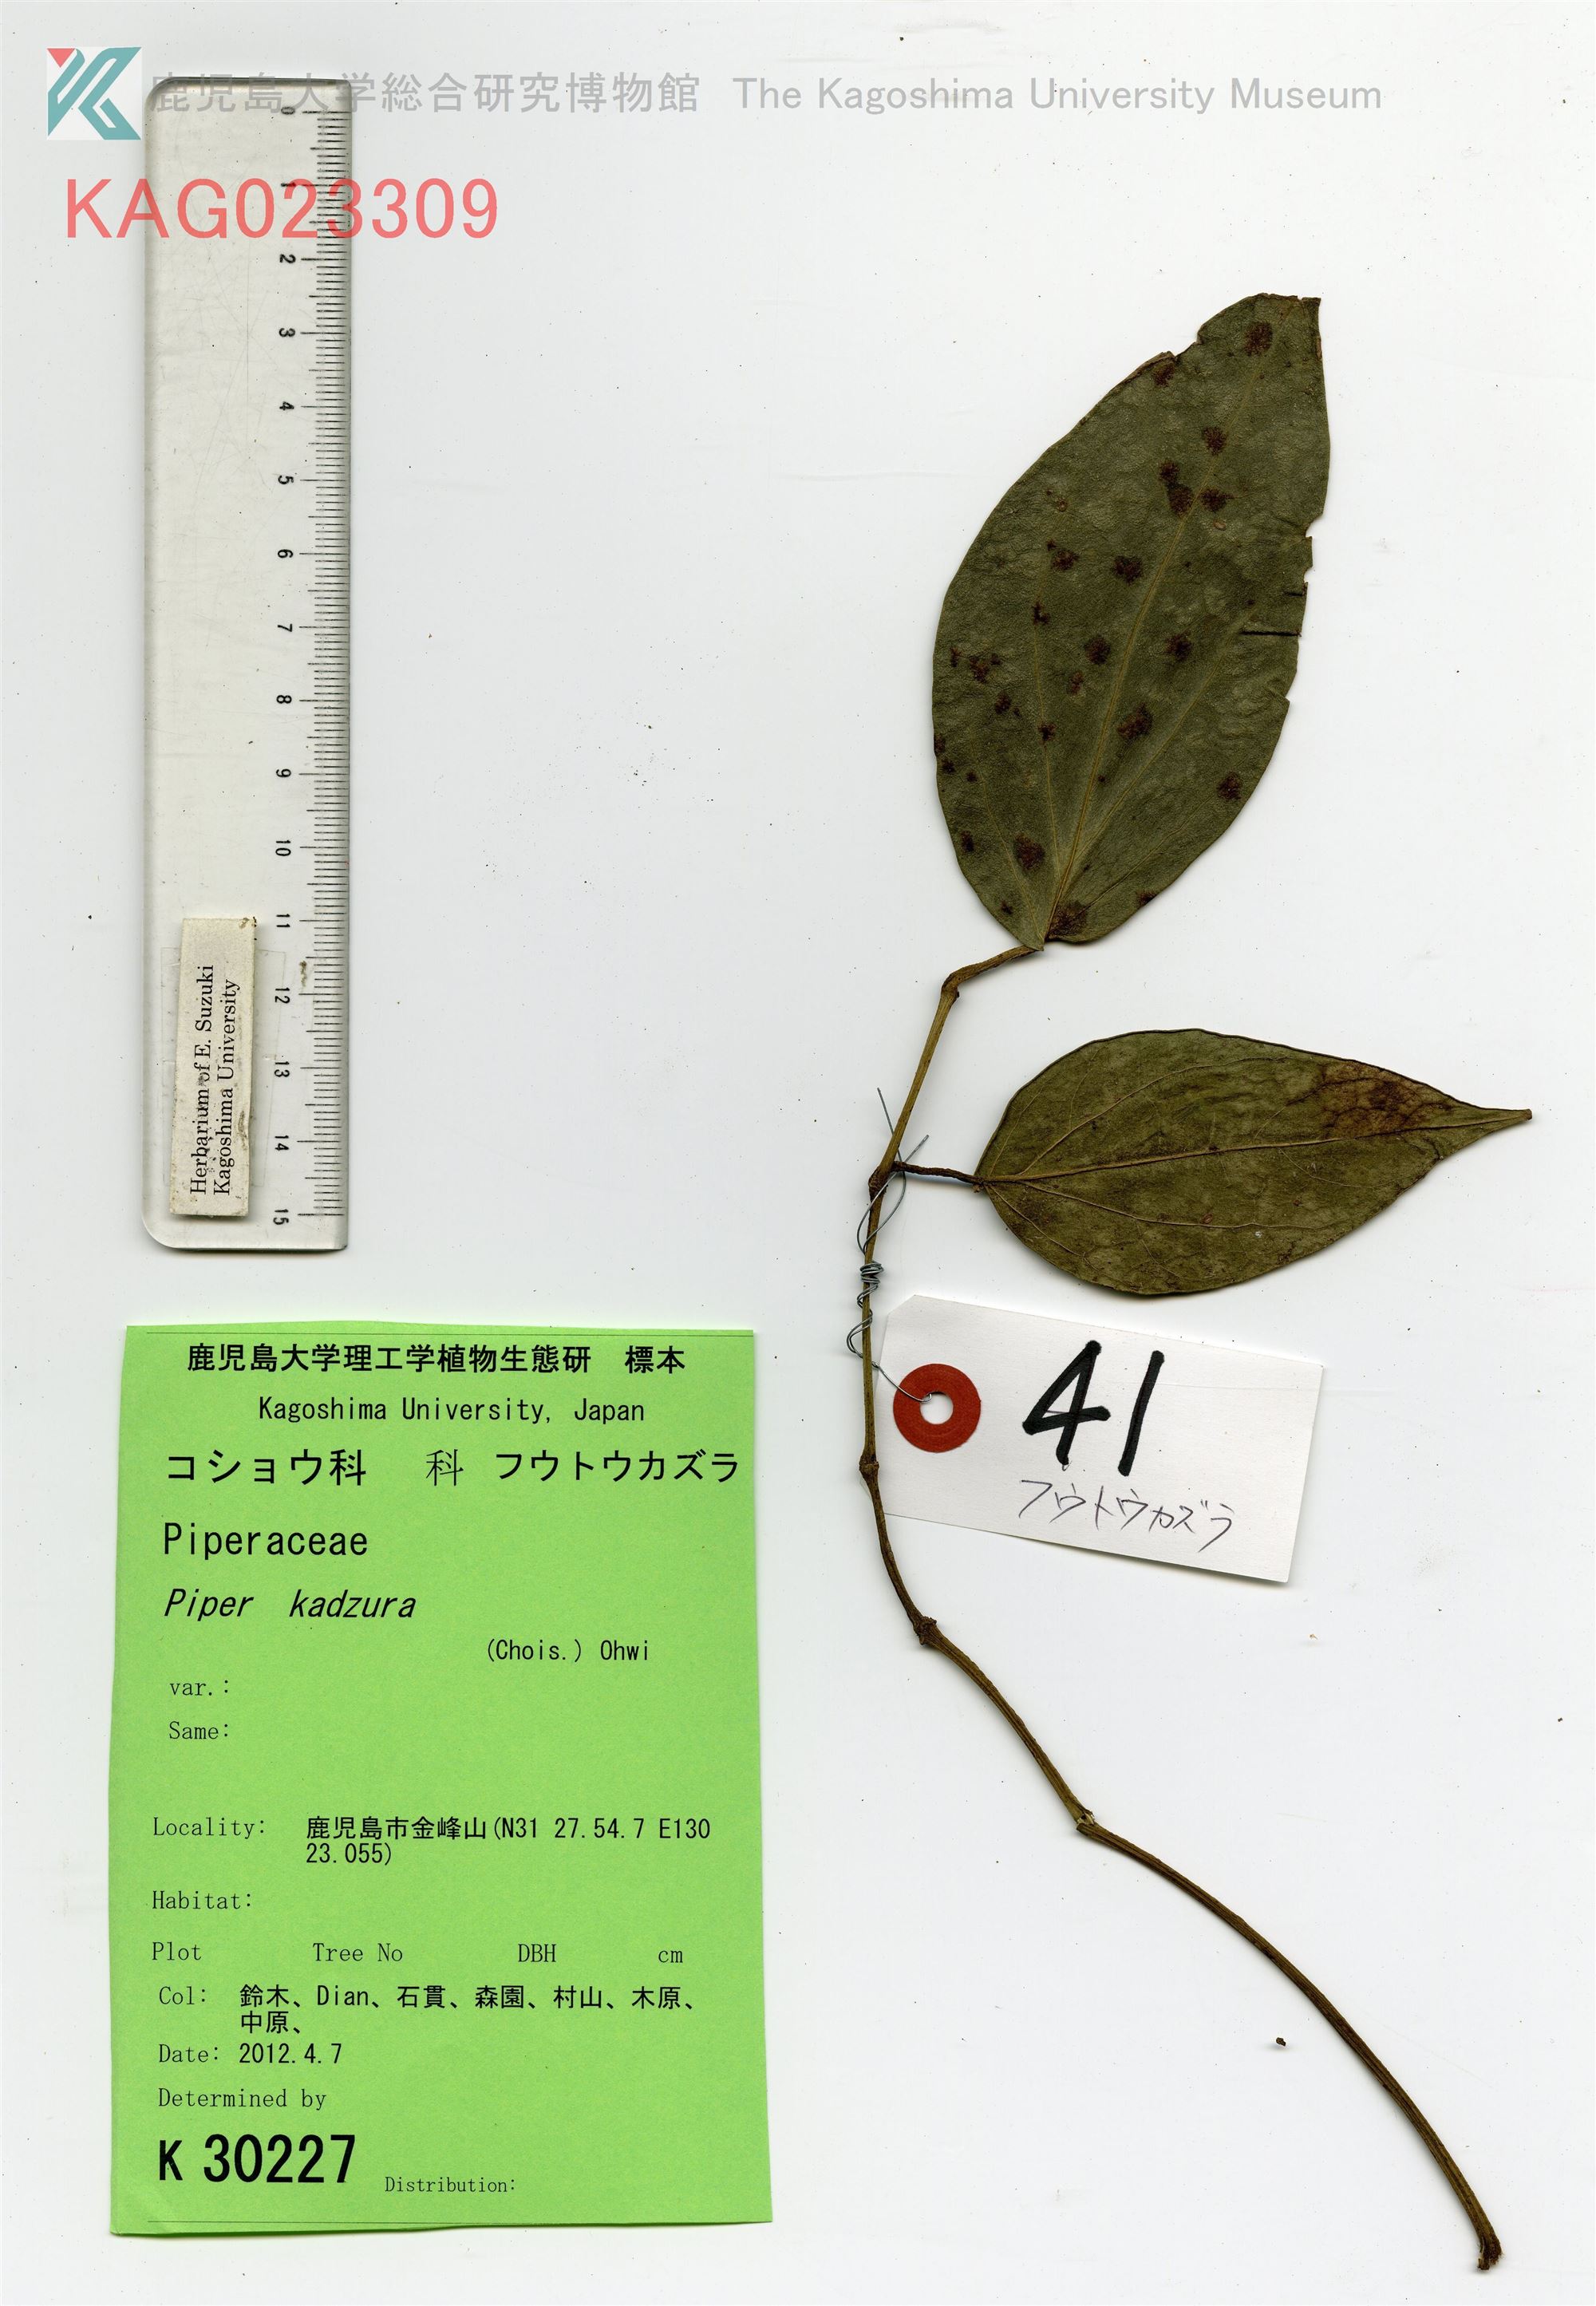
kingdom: Plantae
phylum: Tracheophyta
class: Magnoliopsida
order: Piperales
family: Piperaceae
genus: Piper
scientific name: Piper kadsura
